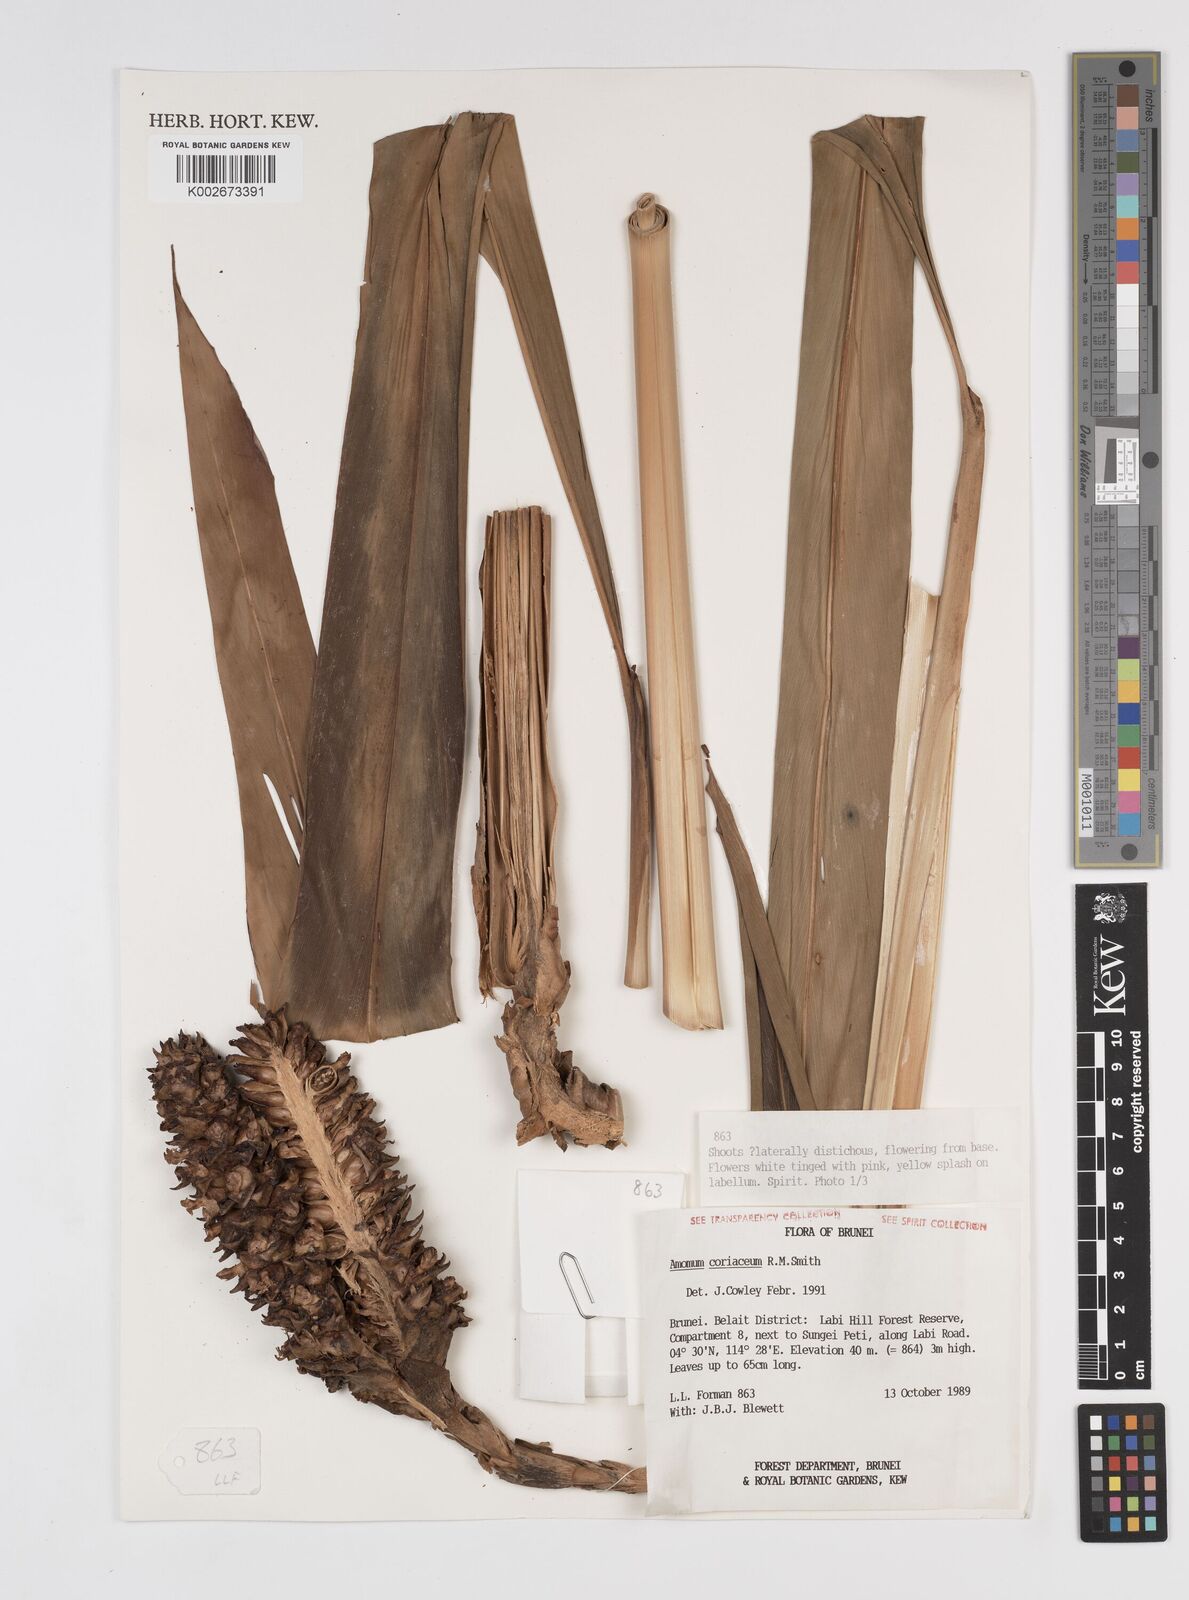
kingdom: Plantae
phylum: Tracheophyta
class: Liliopsida
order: Zingiberales
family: Zingiberaceae
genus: Conamomum
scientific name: Conamomum cylindrostachys
